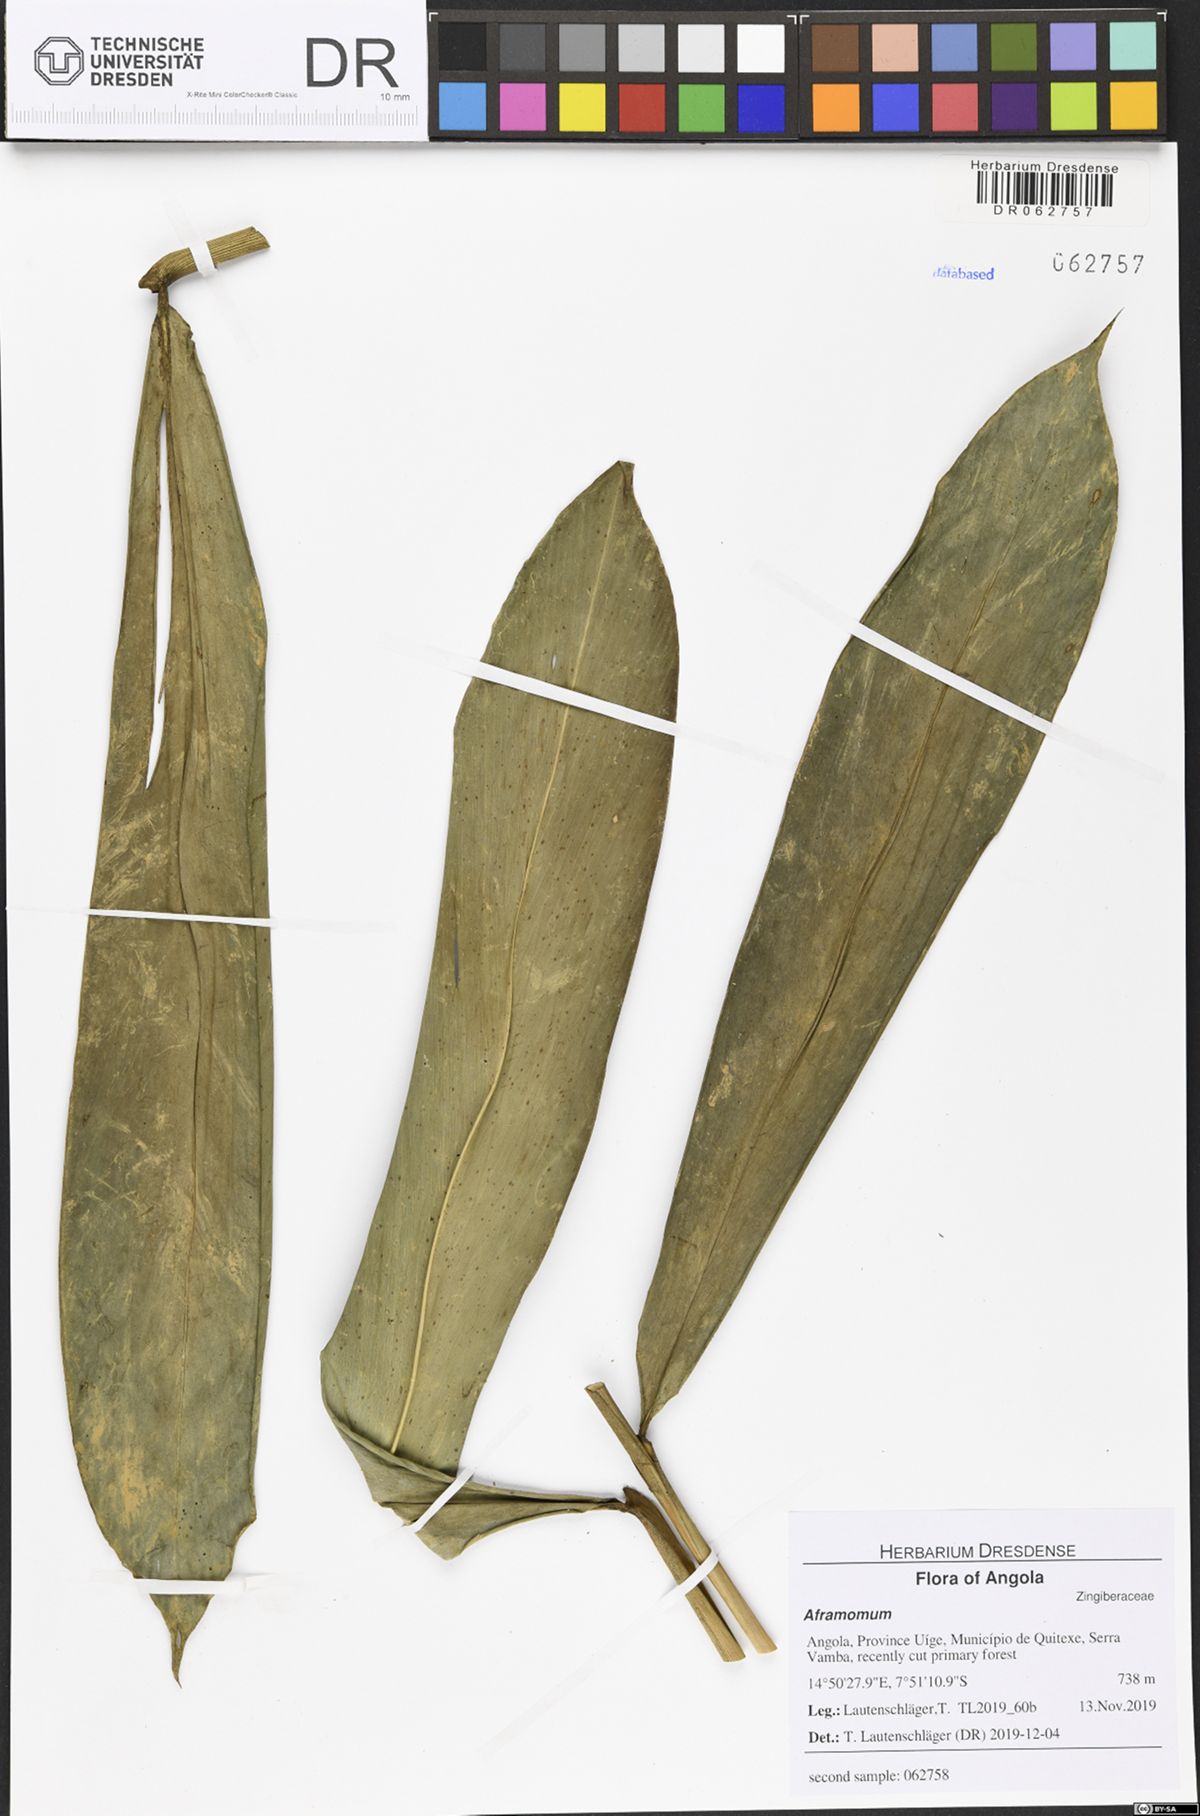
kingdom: Plantae
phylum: Tracheophyta
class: Liliopsida
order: Zingiberales
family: Zingiberaceae
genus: Aframomum
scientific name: Aframomum parvulum
